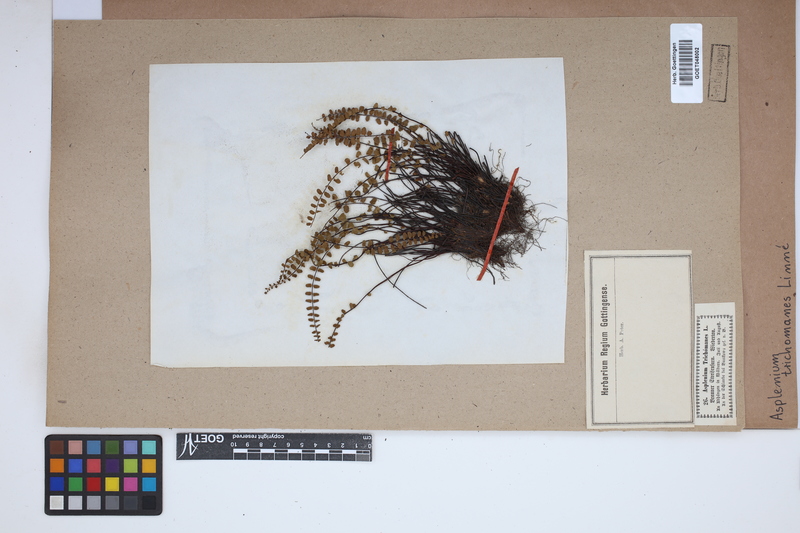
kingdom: Plantae
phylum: Tracheophyta
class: Polypodiopsida
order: Polypodiales
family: Aspleniaceae
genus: Asplenium
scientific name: Asplenium trichomanes
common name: Maidenhair spleenwort
